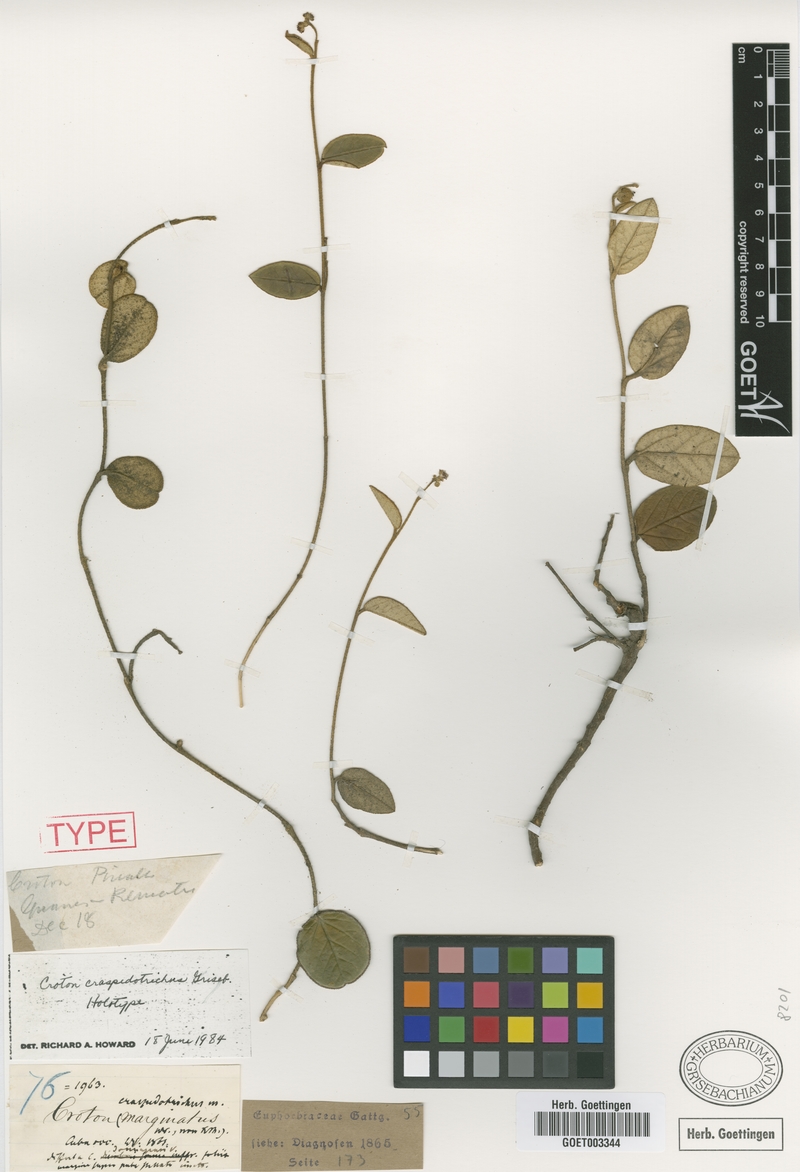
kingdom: Plantae
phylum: Tracheophyta
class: Magnoliopsida
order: Malpighiales
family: Euphorbiaceae
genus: Croton
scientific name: Croton craspedotrichus
